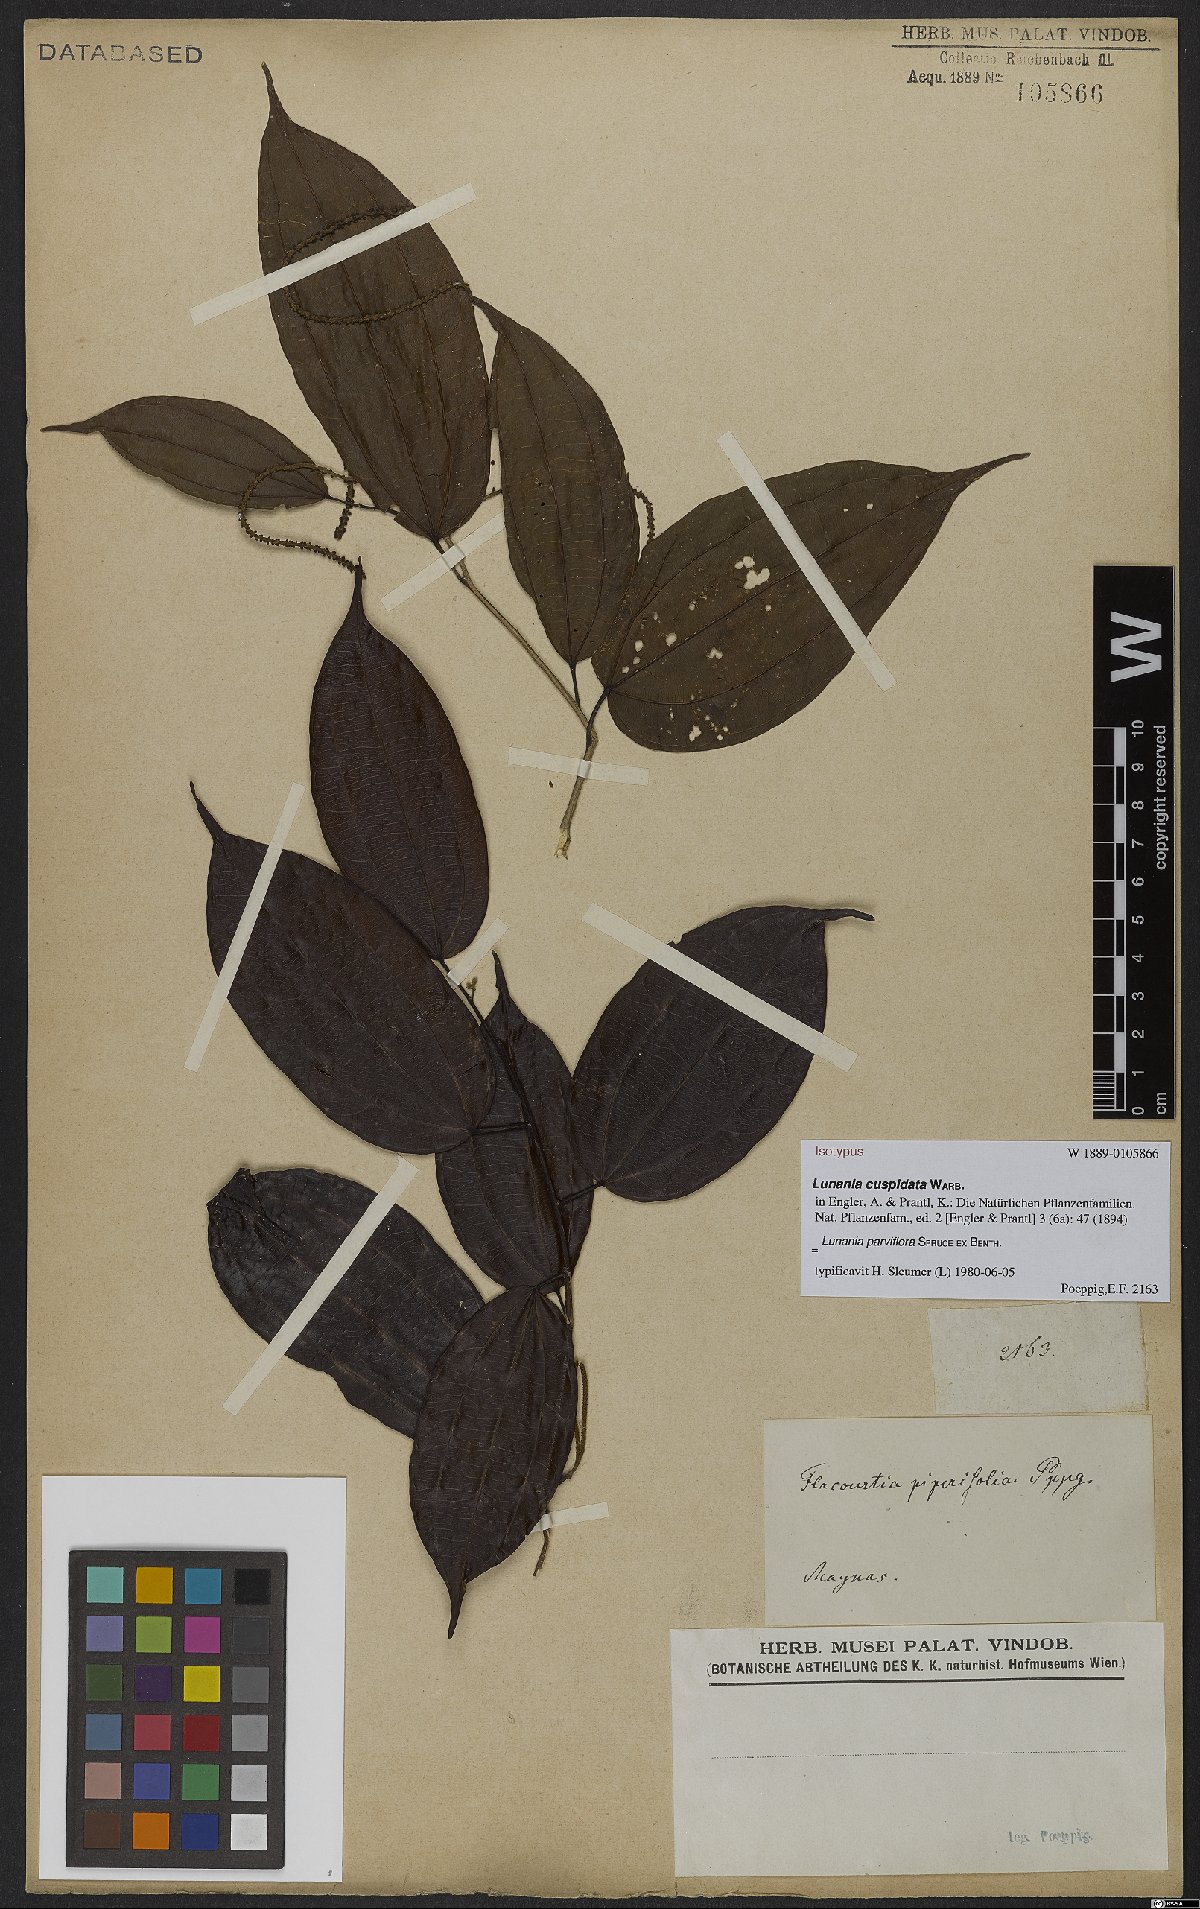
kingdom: Plantae
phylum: Tracheophyta
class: Magnoliopsida
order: Malpighiales
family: Salicaceae
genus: Lunania
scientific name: Lunania parviflora
